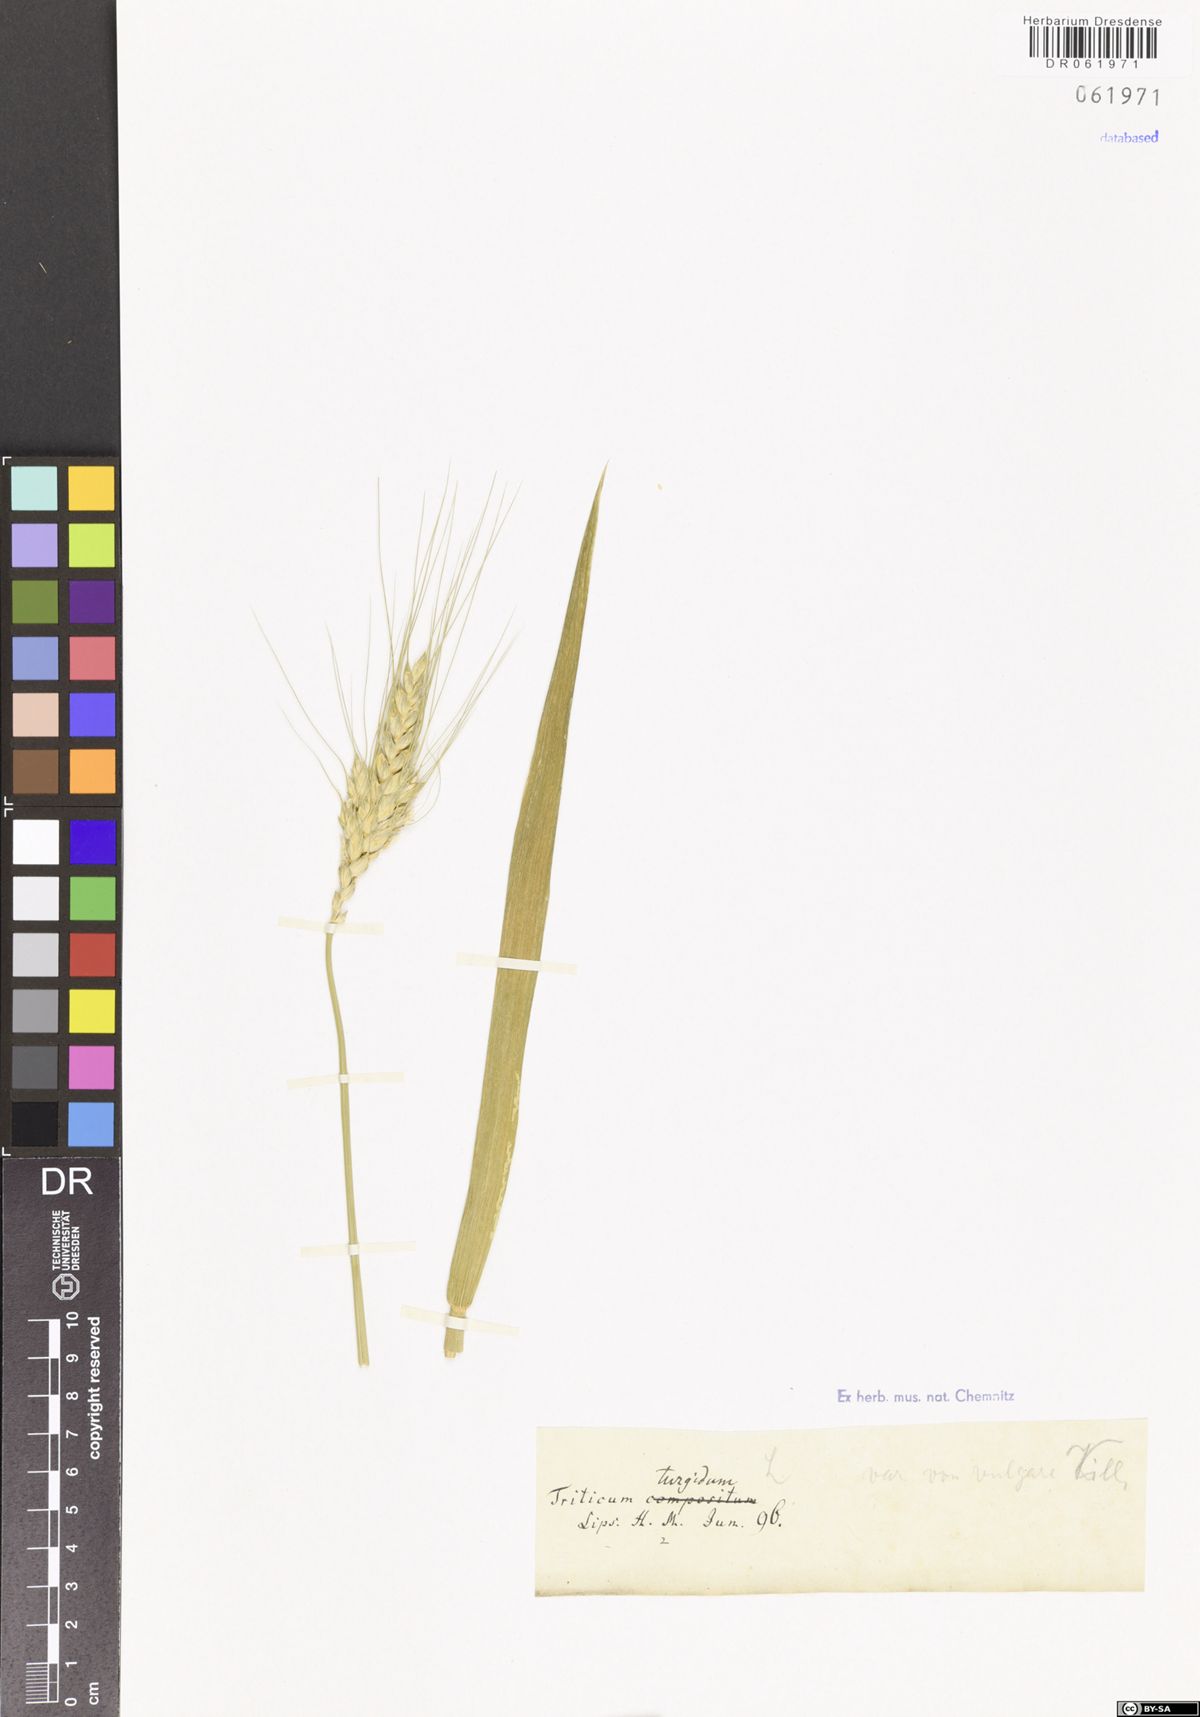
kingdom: Plantae
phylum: Tracheophyta
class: Liliopsida
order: Poales
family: Poaceae
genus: Triticum
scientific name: Triticum turgidum
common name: Rivet wheat
